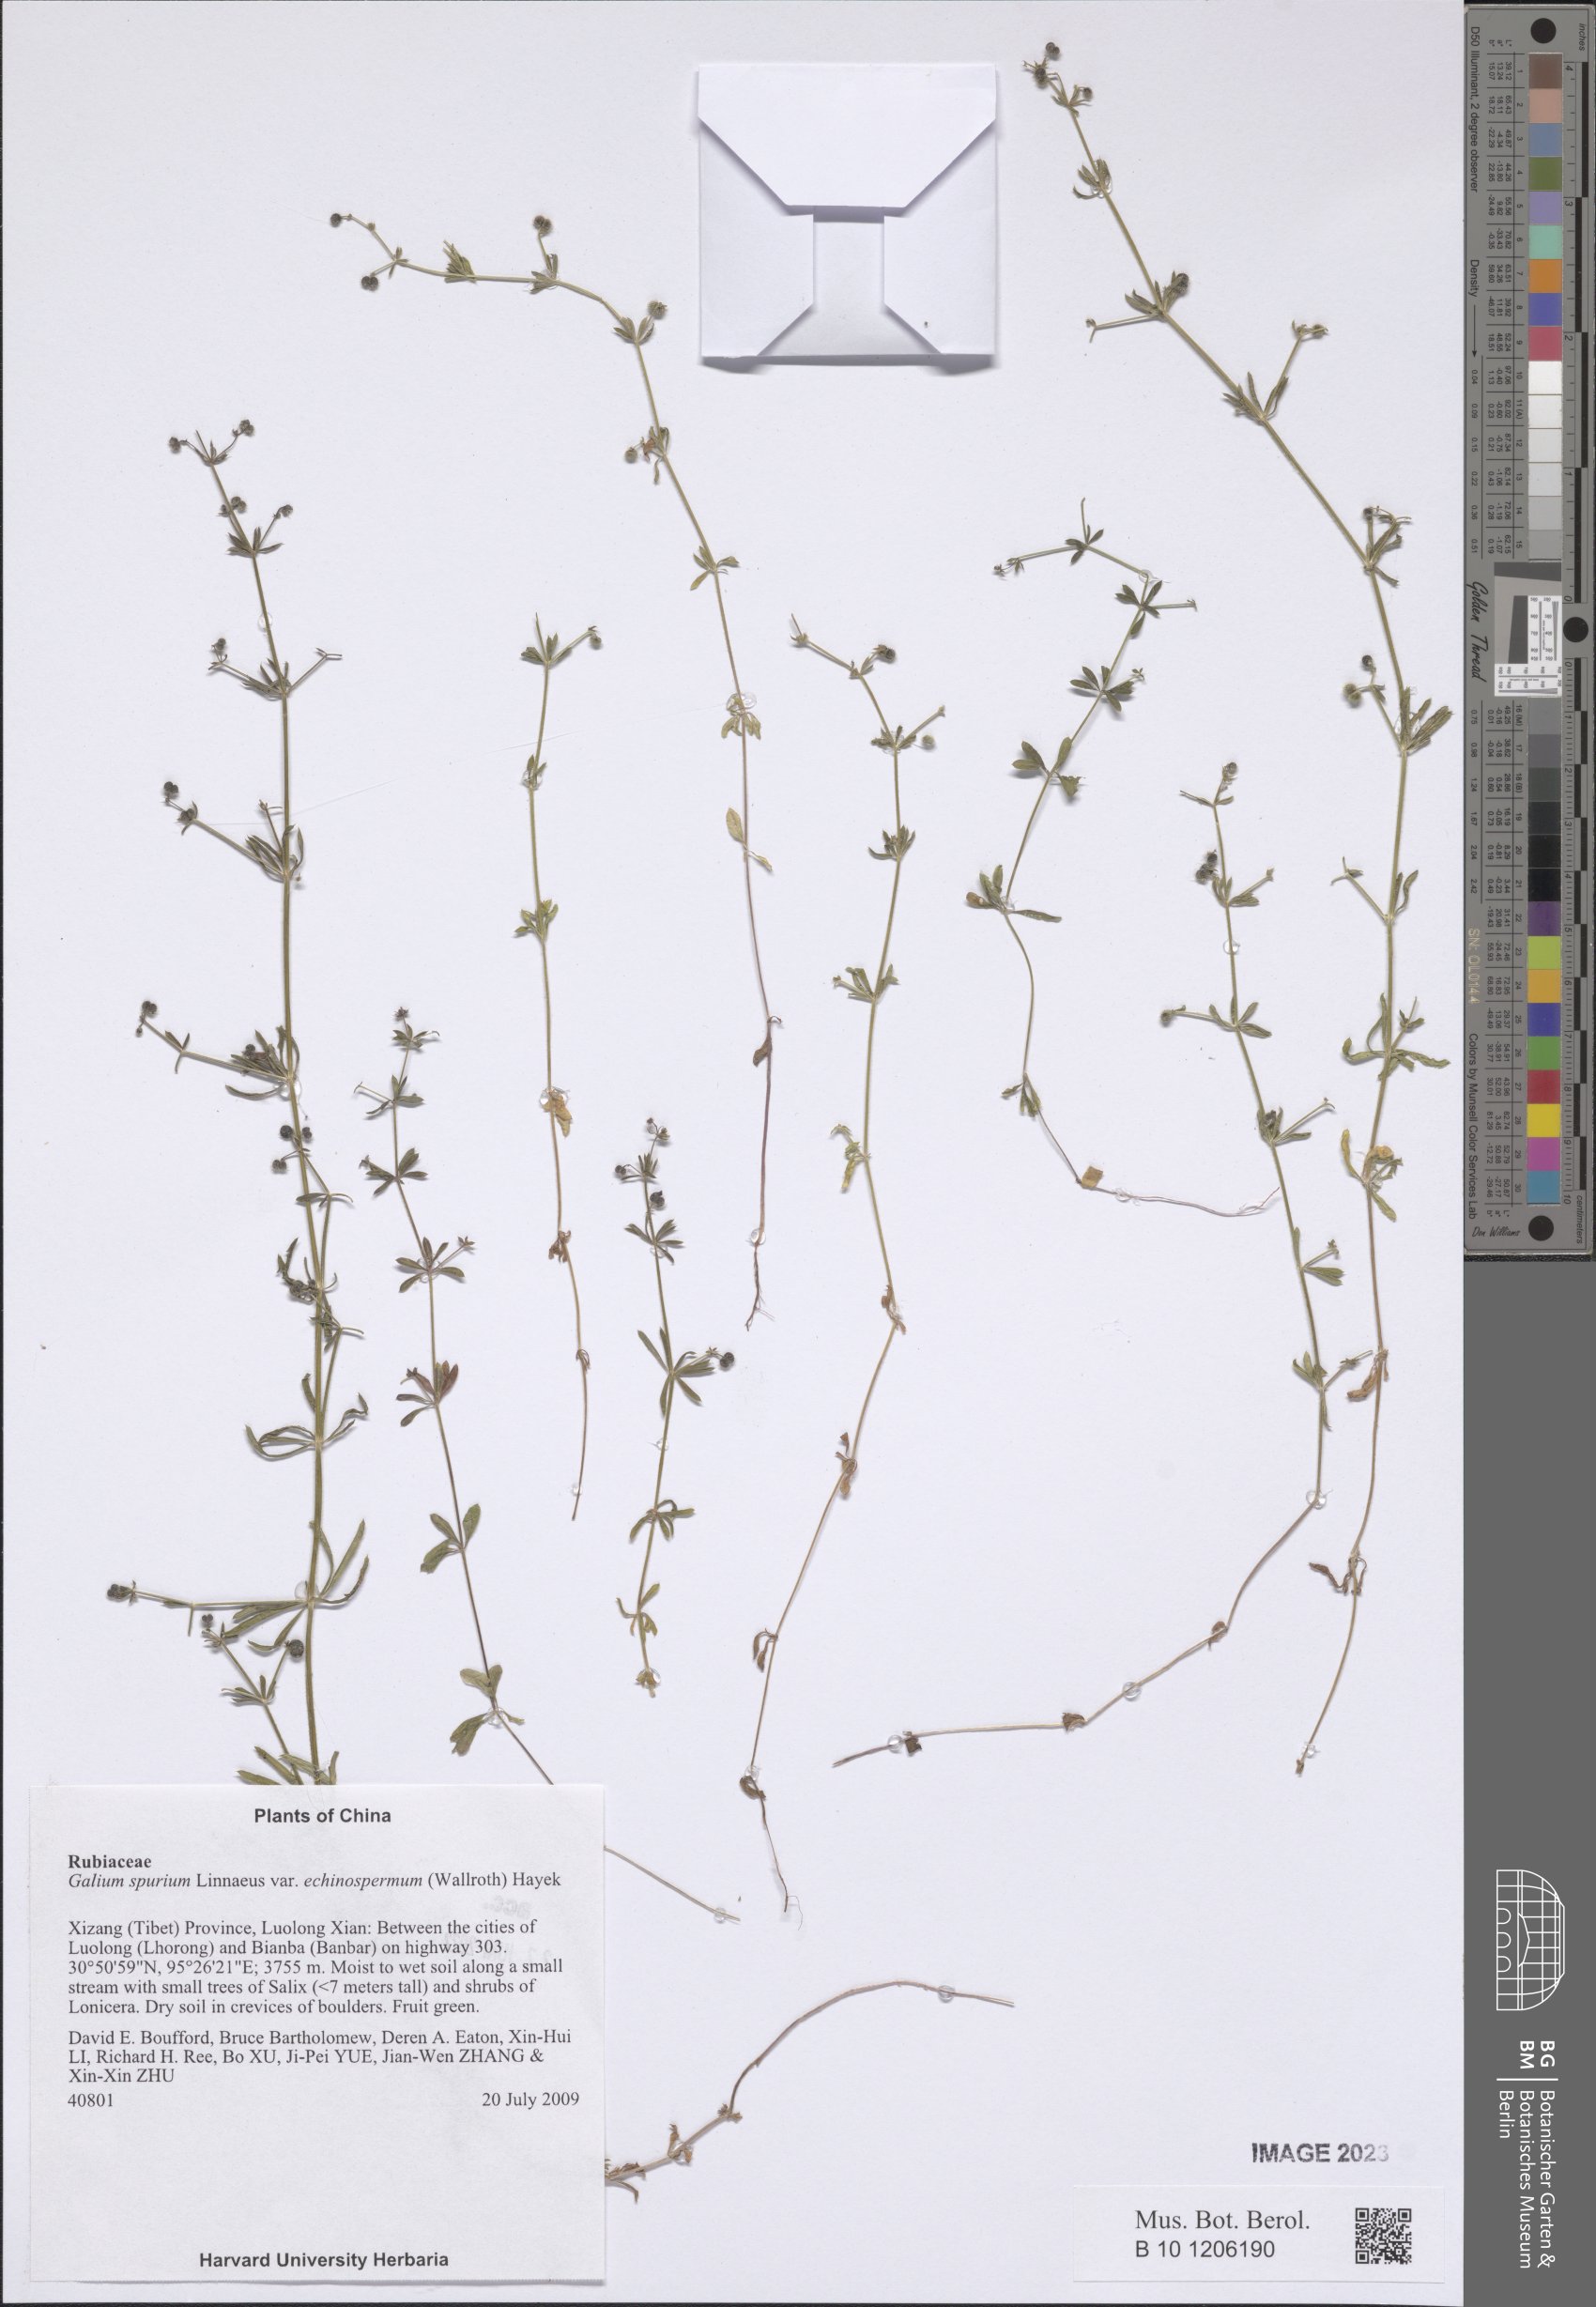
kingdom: Plantae
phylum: Tracheophyta
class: Magnoliopsida
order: Gentianales
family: Rubiaceae
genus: Galium
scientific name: Galium
